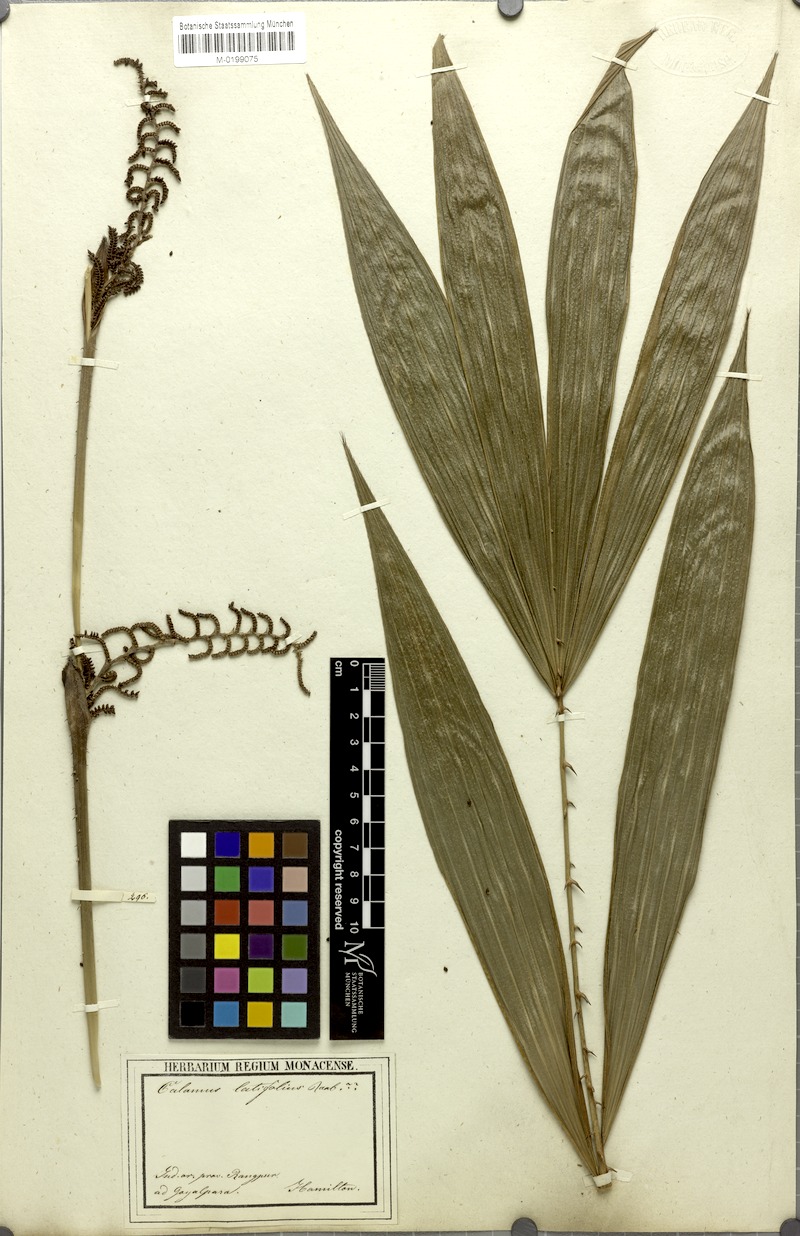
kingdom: Plantae
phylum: Tracheophyta
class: Liliopsida
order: Arecales
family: Arecaceae
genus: Calamus
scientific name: Calamus floribundus
